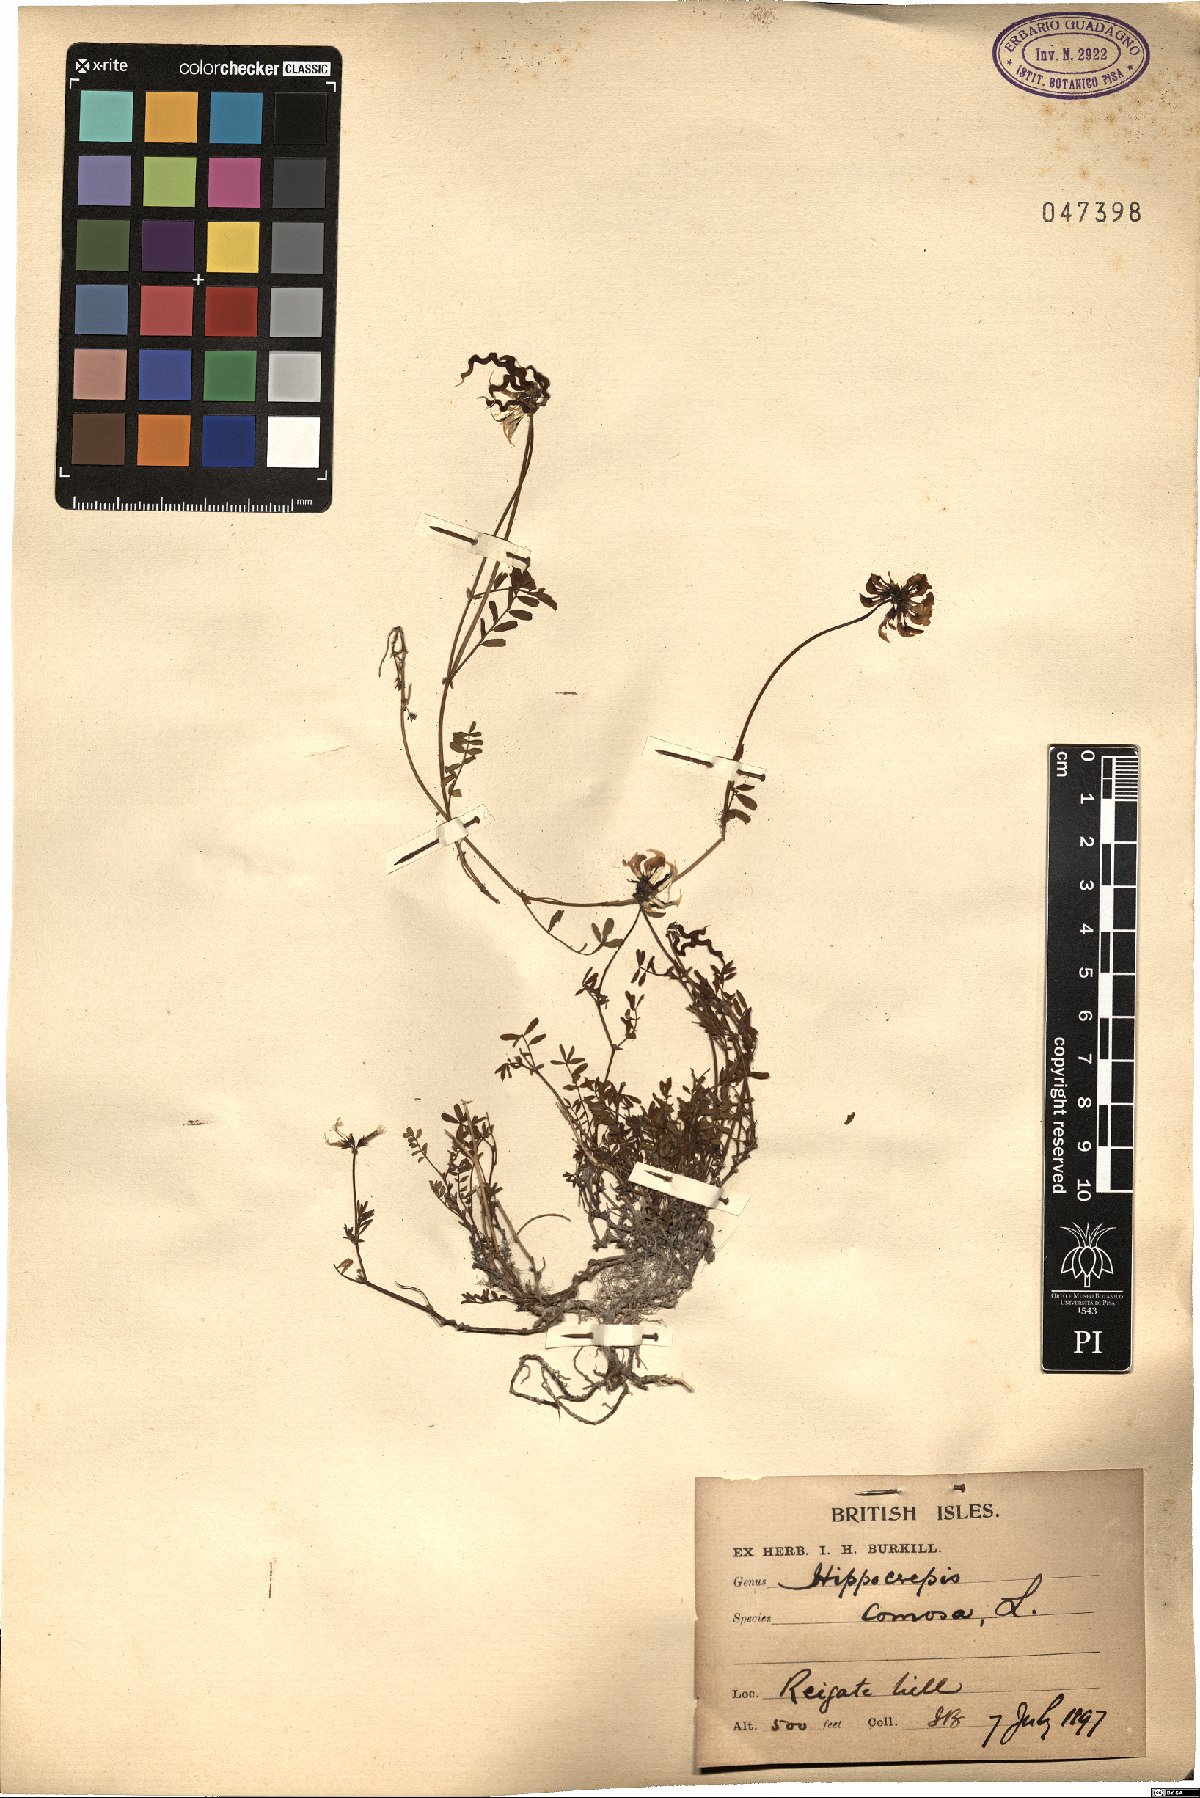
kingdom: Plantae
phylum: Tracheophyta
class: Magnoliopsida
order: Fabales
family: Fabaceae
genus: Hippocrepis
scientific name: Hippocrepis comosa
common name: Horseshoe vetch
